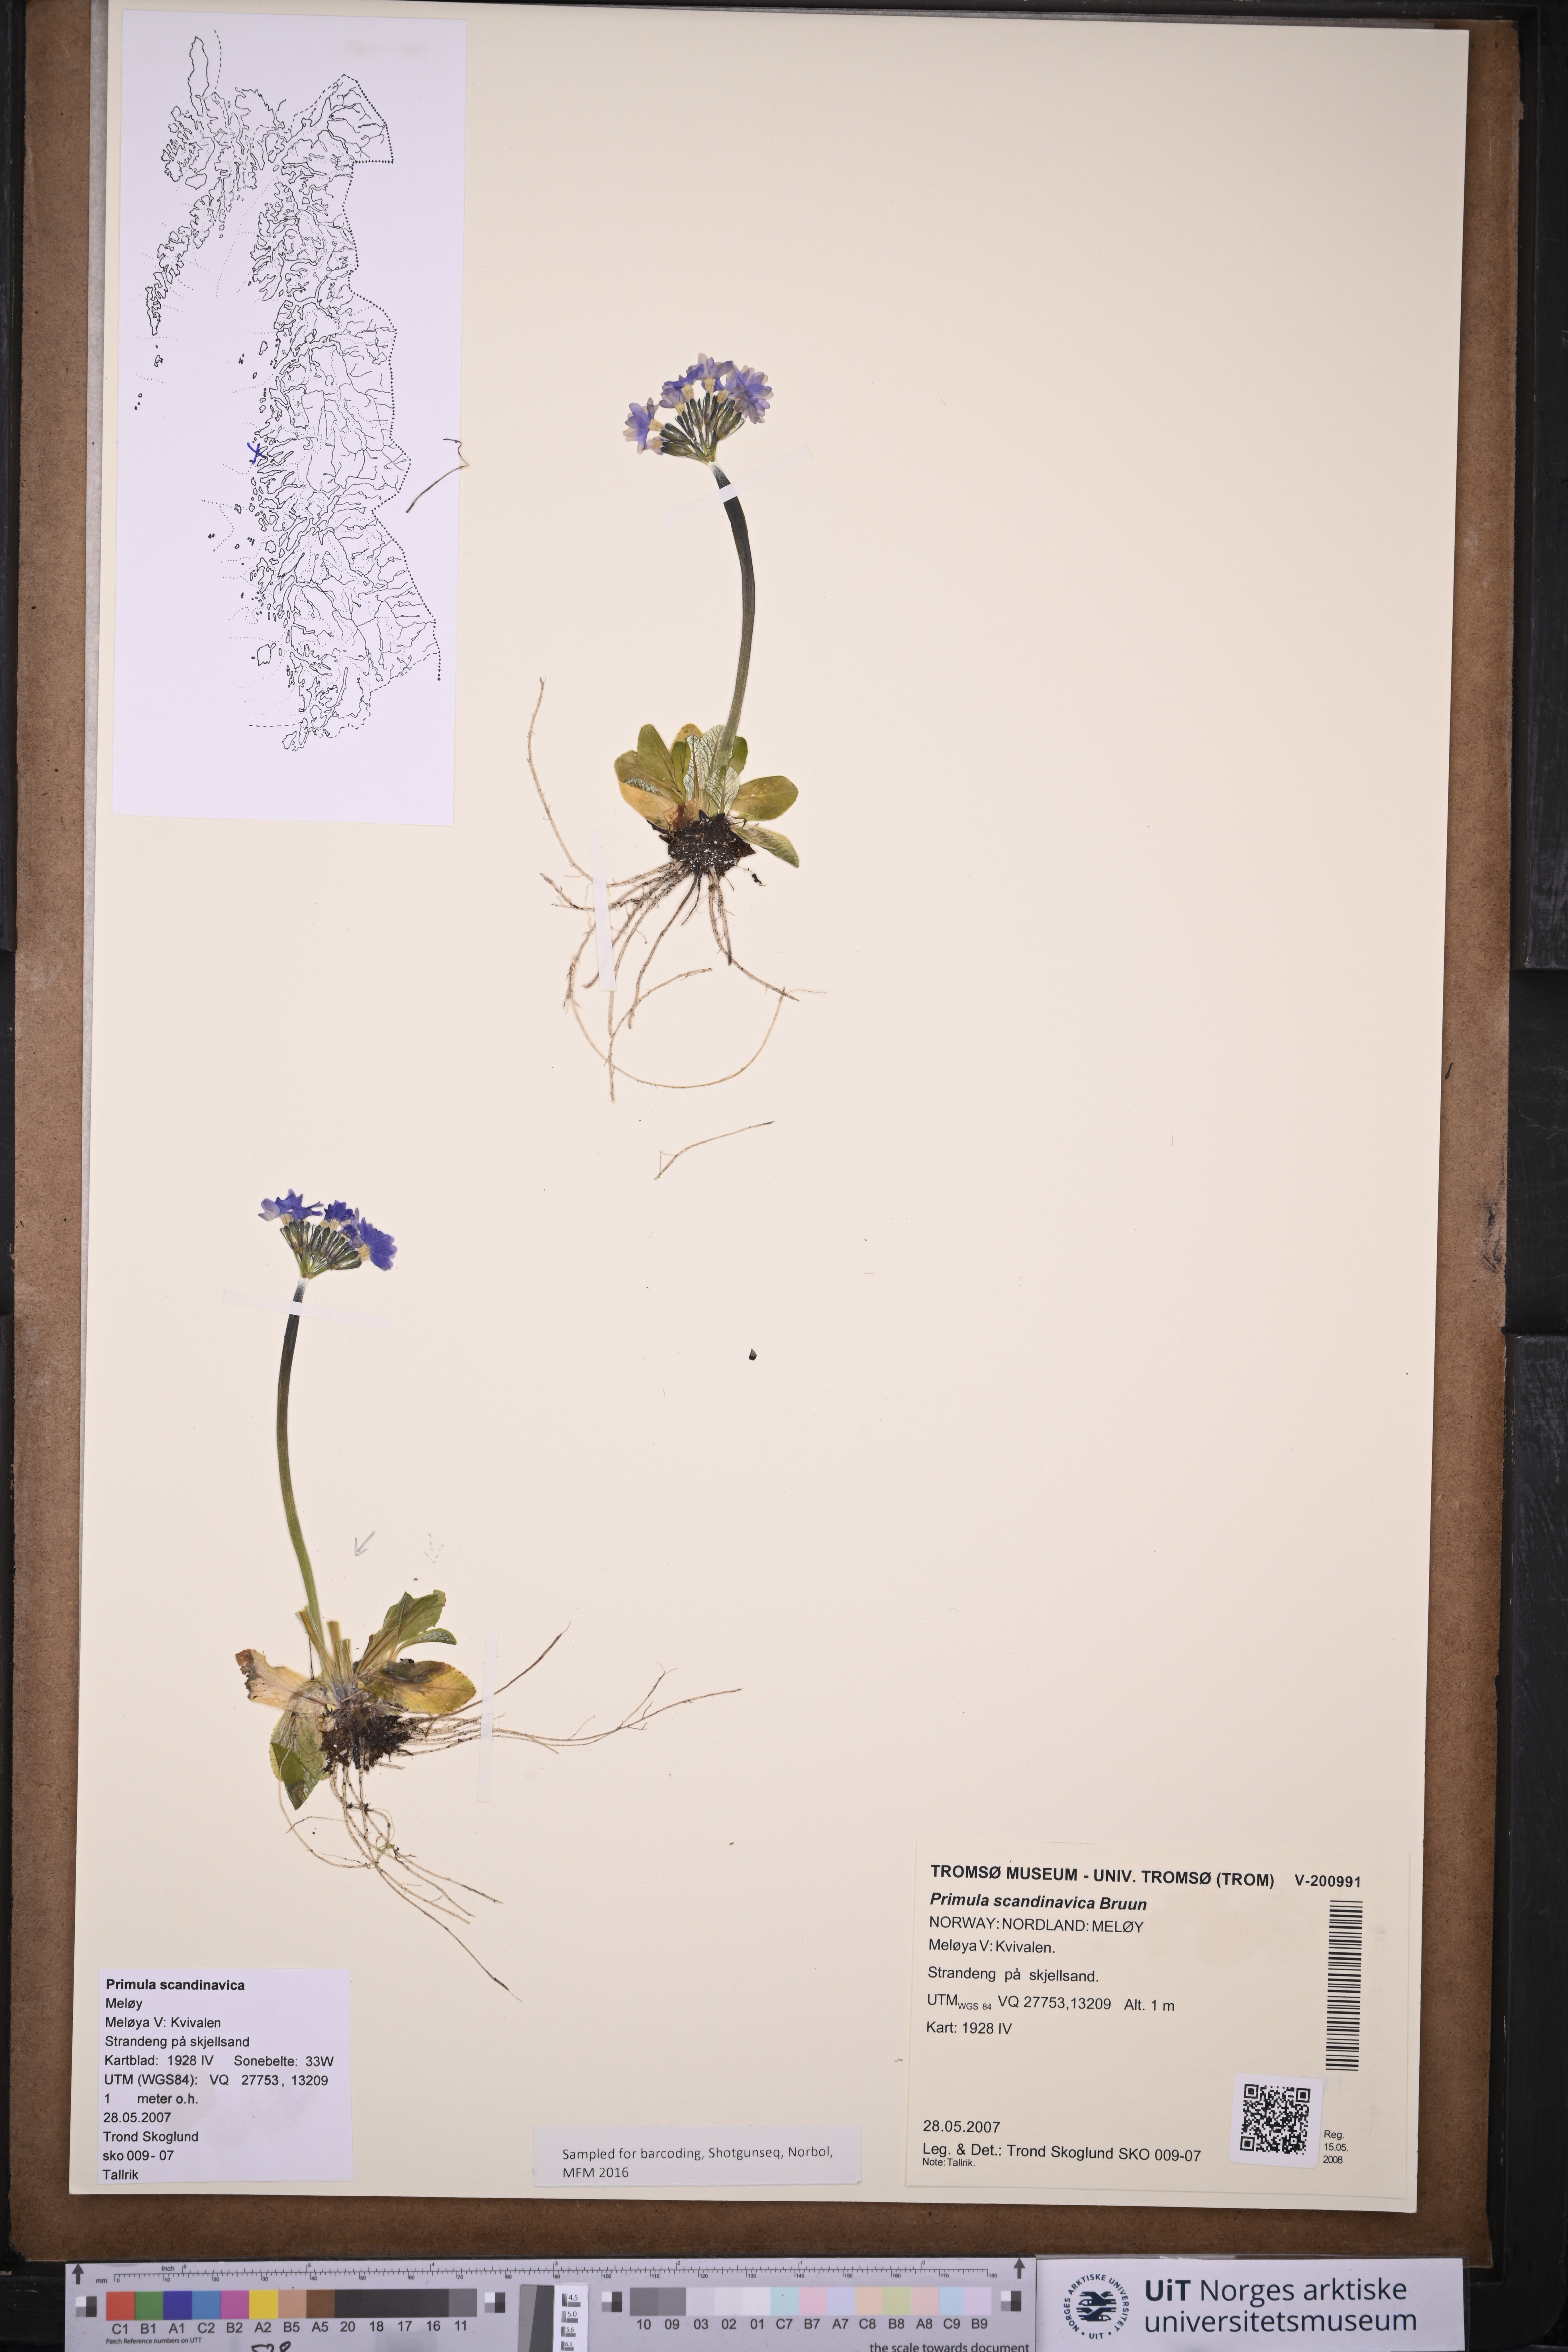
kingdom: Plantae
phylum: Tracheophyta
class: Magnoliopsida
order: Ericales
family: Primulaceae
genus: Primula
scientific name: Primula scandinavica
